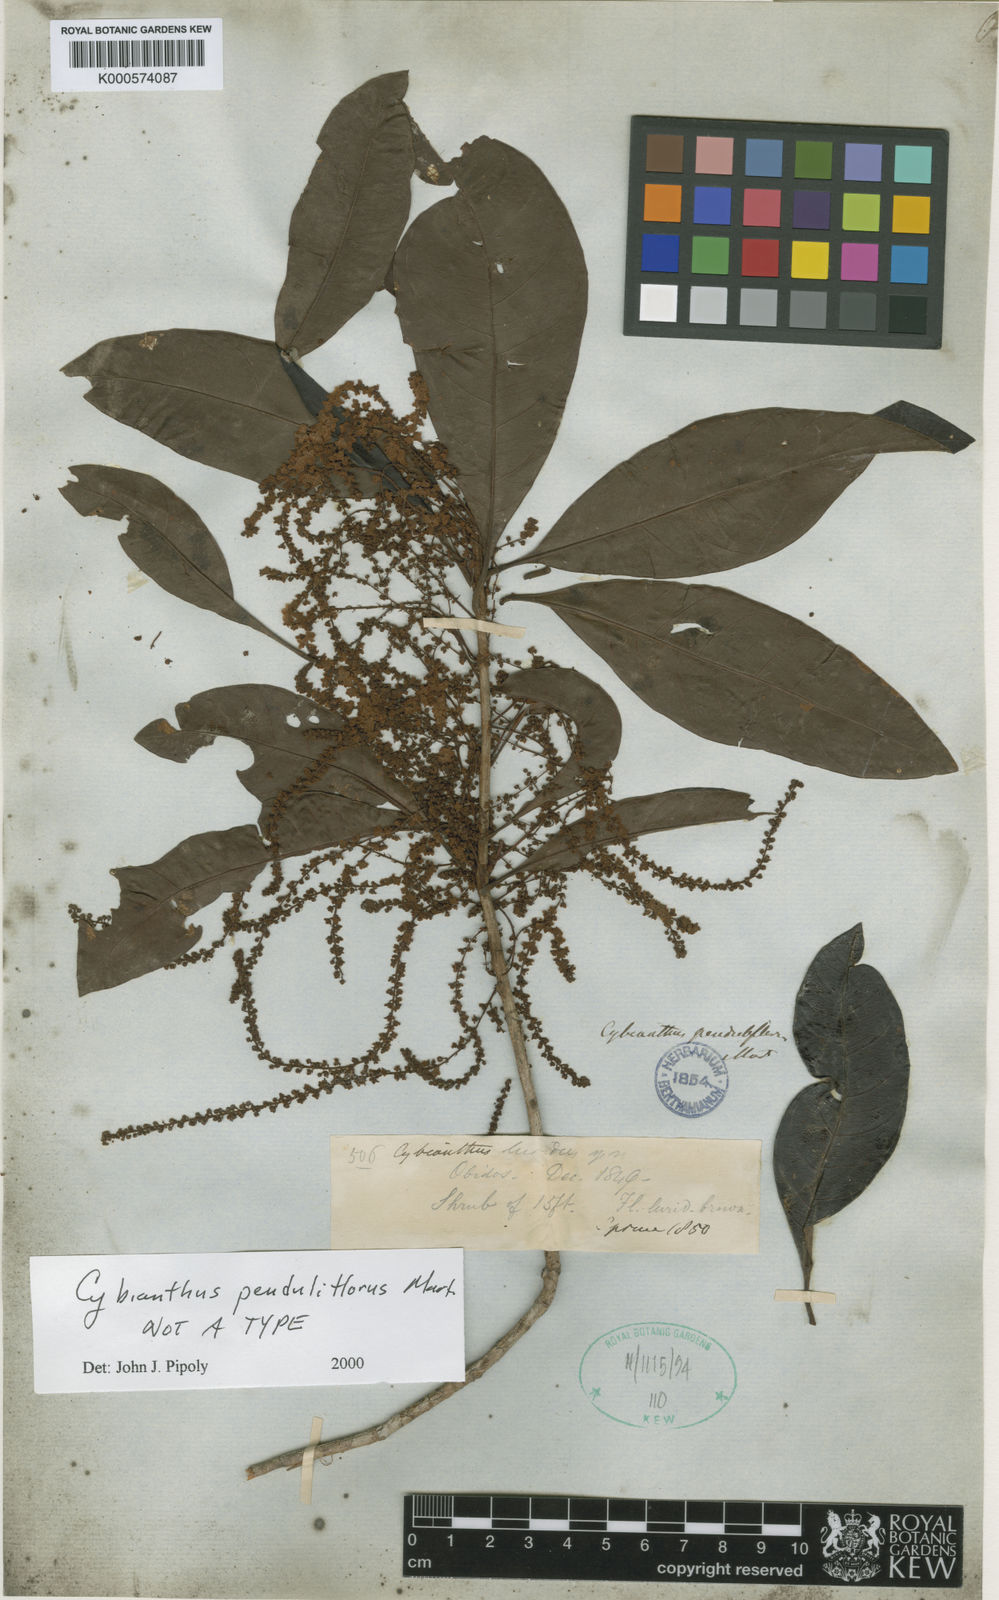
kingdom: Plantae
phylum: Tracheophyta
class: Magnoliopsida
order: Ericales
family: Primulaceae
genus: Cybianthus
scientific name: Cybianthus penduliflorus
